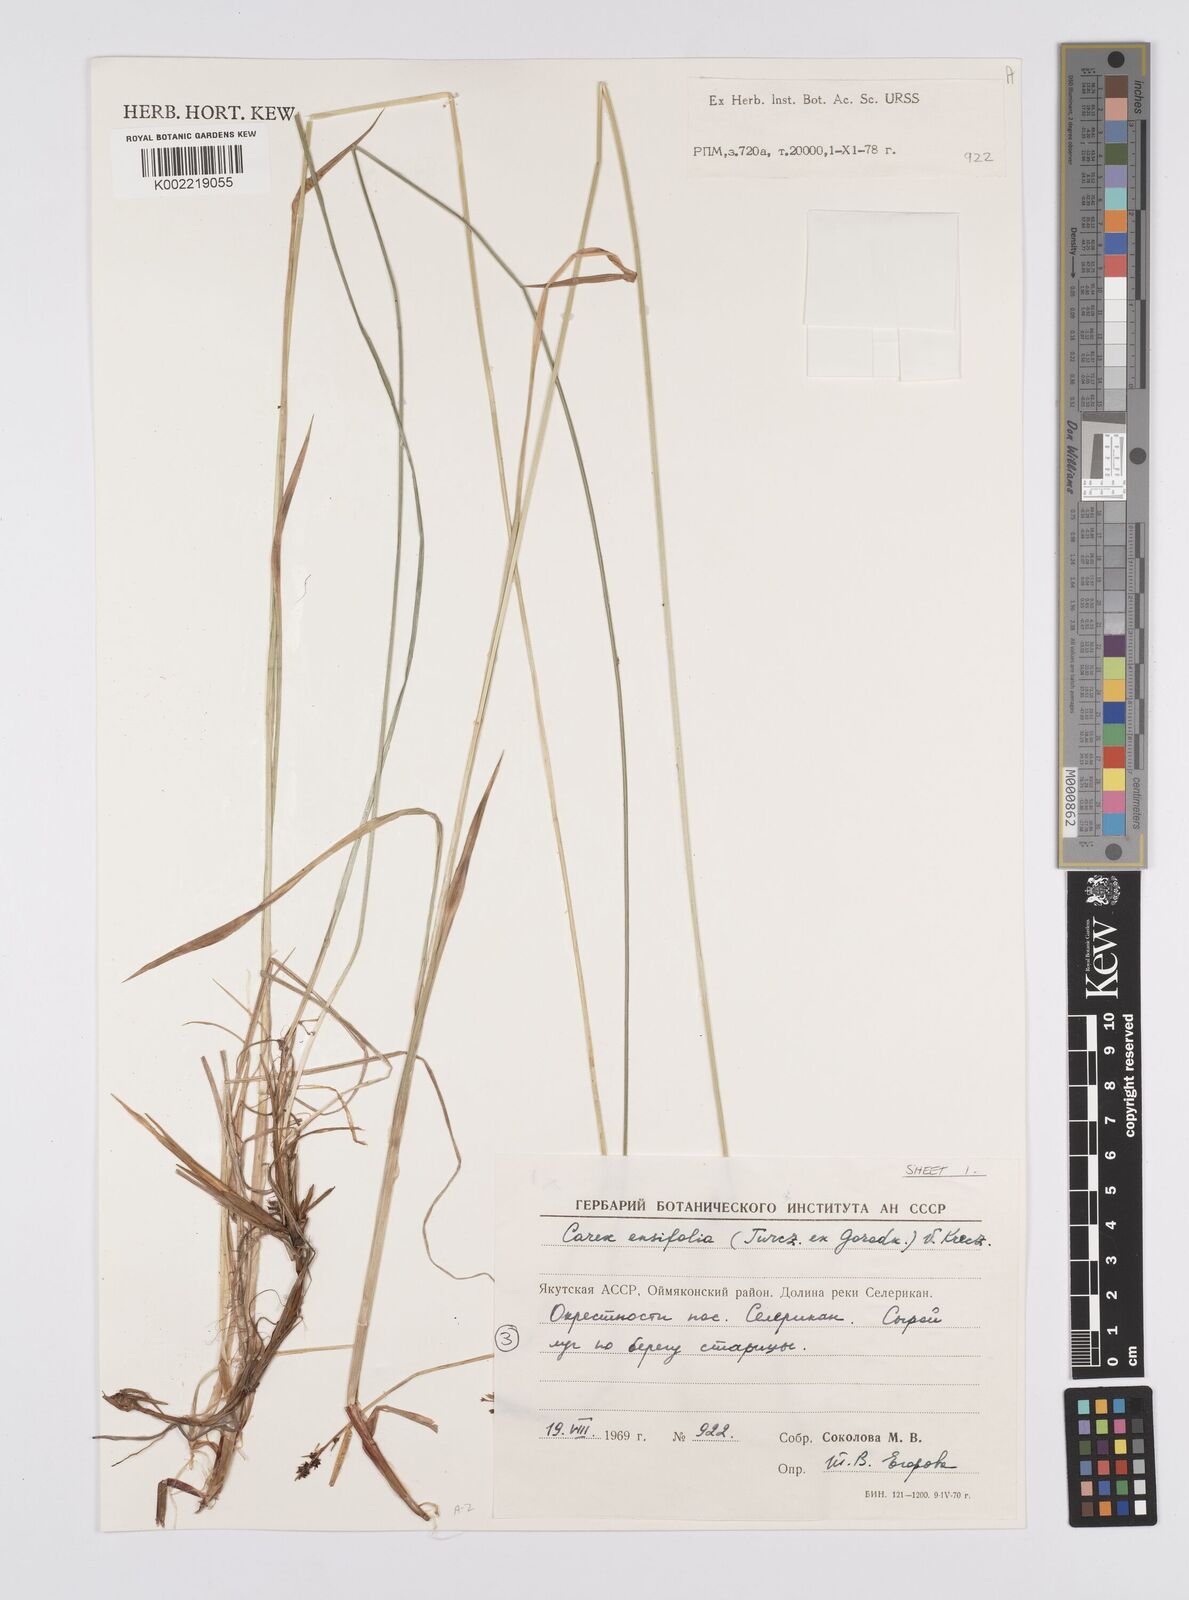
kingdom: Plantae
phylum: Tracheophyta
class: Liliopsida
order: Poales
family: Cyperaceae
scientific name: Cyperaceae
